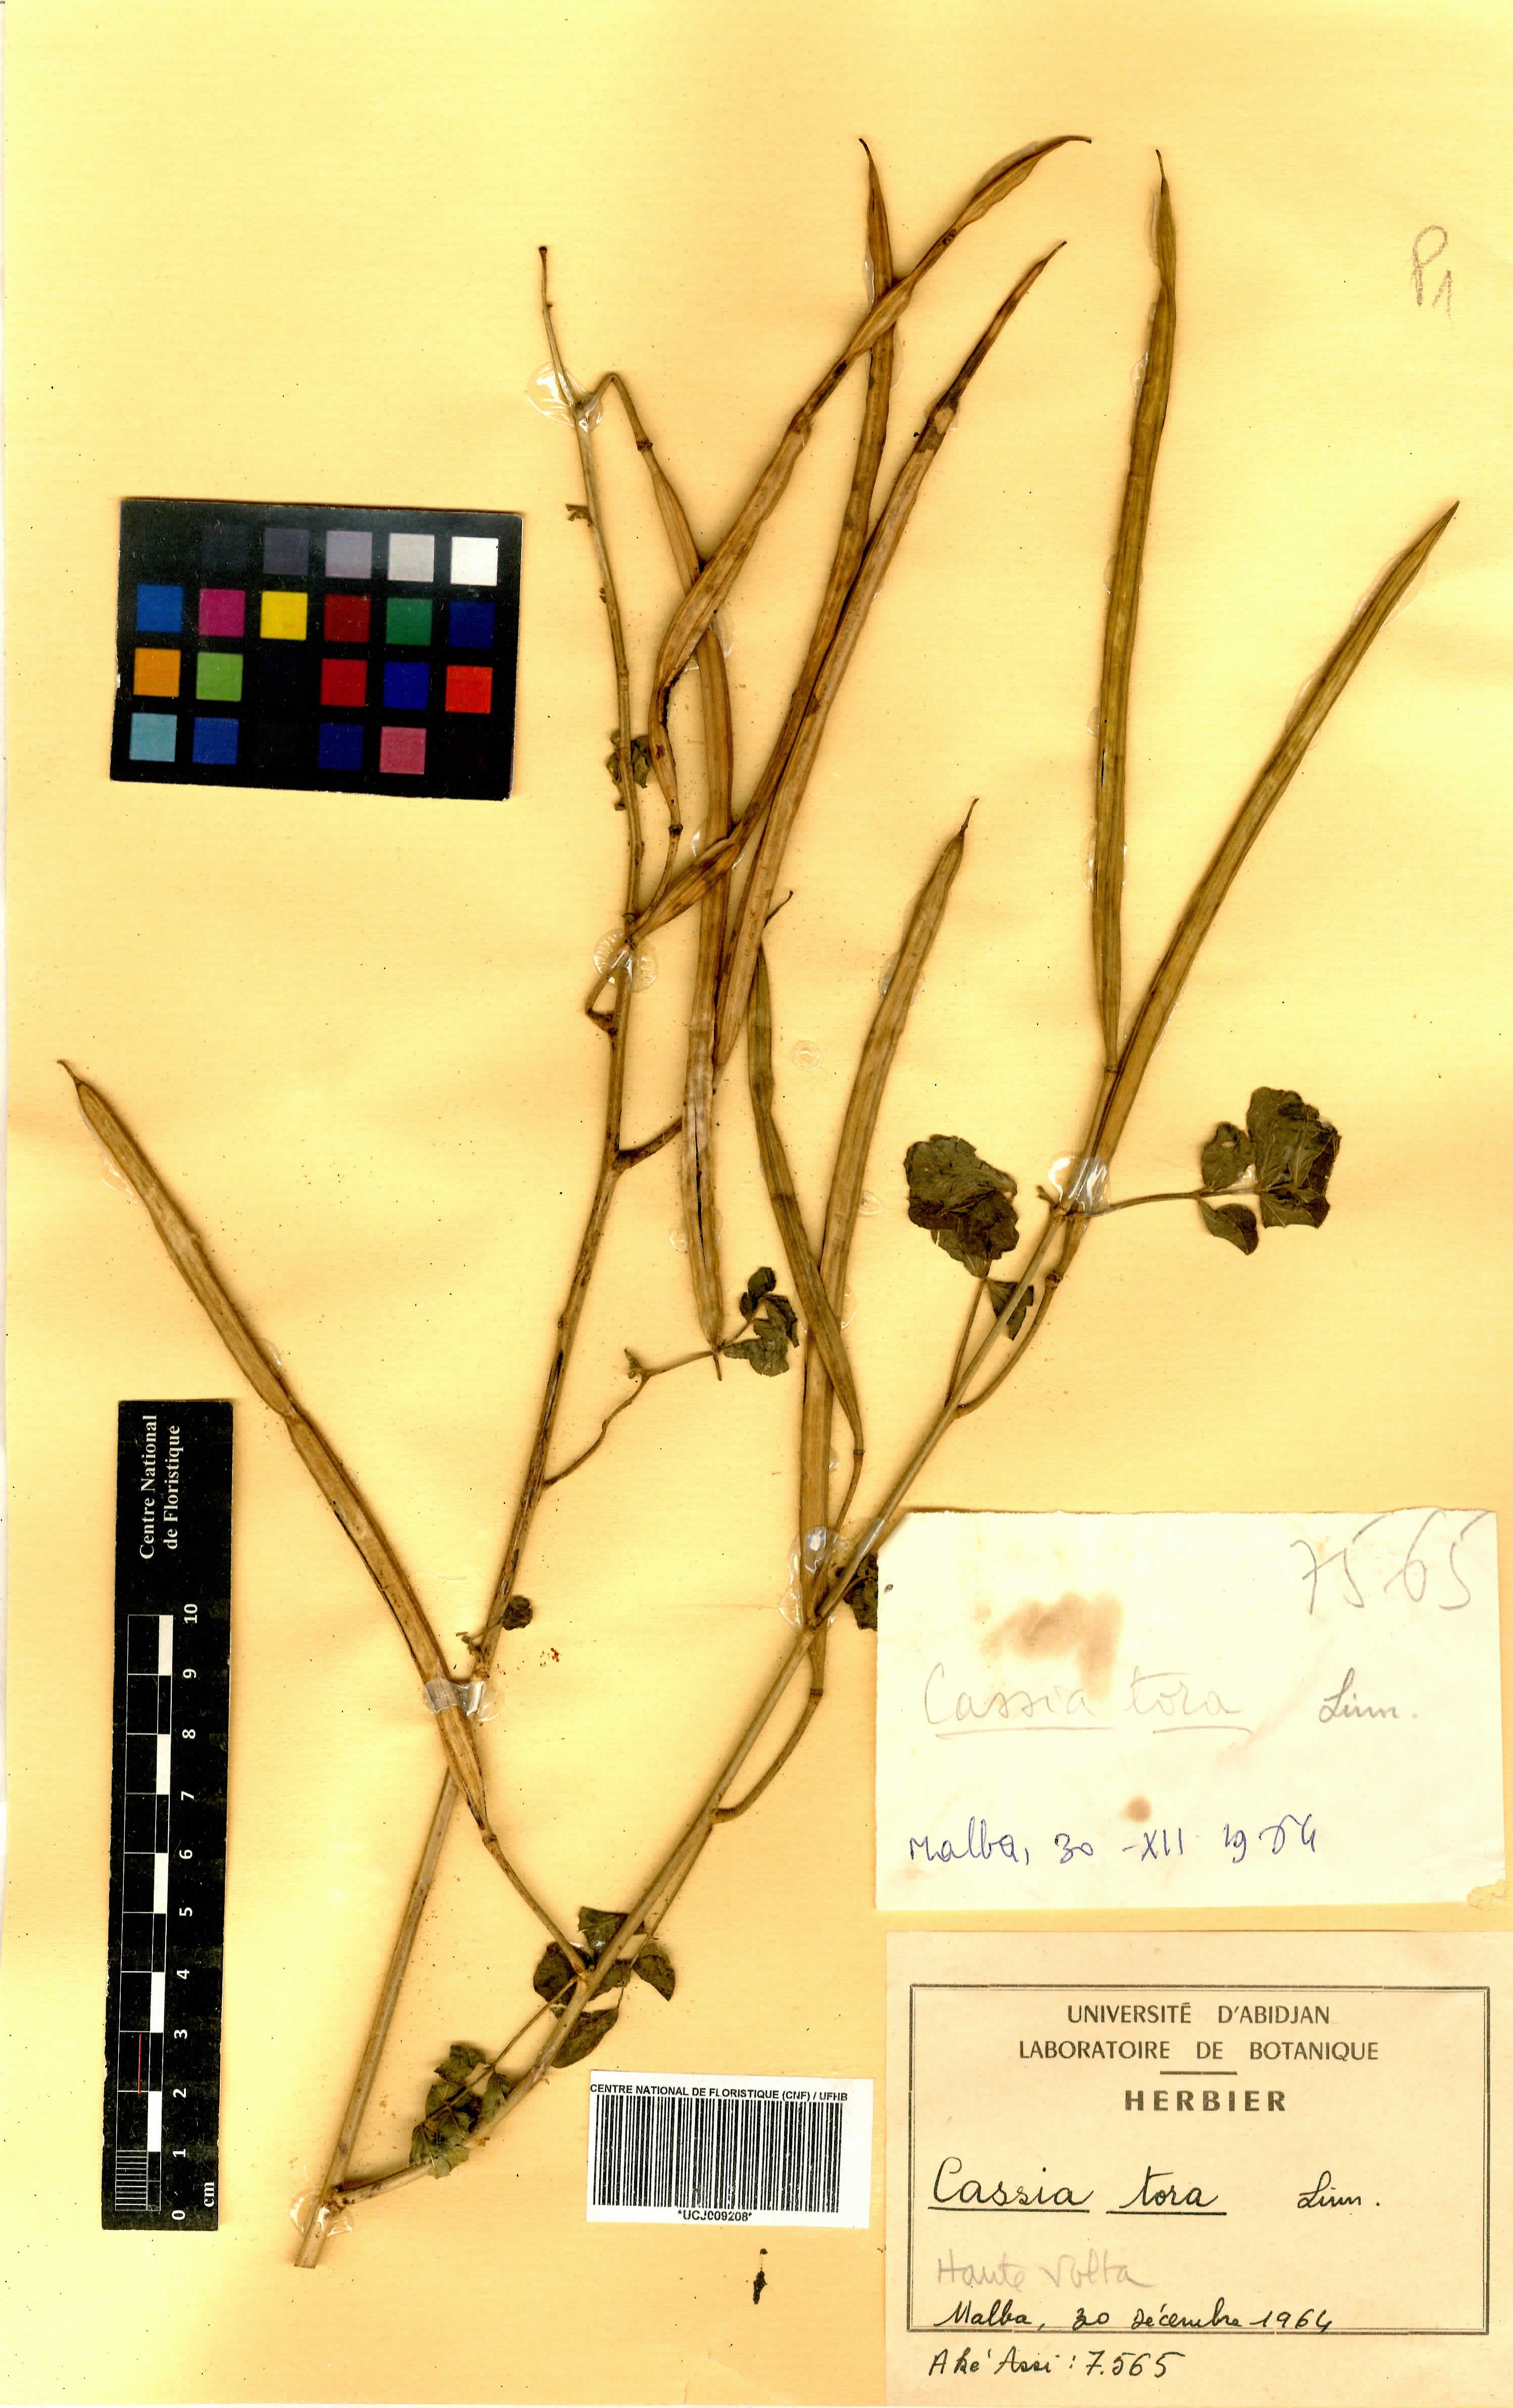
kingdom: Plantae
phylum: Tracheophyta
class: Magnoliopsida
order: Fabales
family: Fabaceae
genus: Senna
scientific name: Senna tora
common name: Sickle senna
